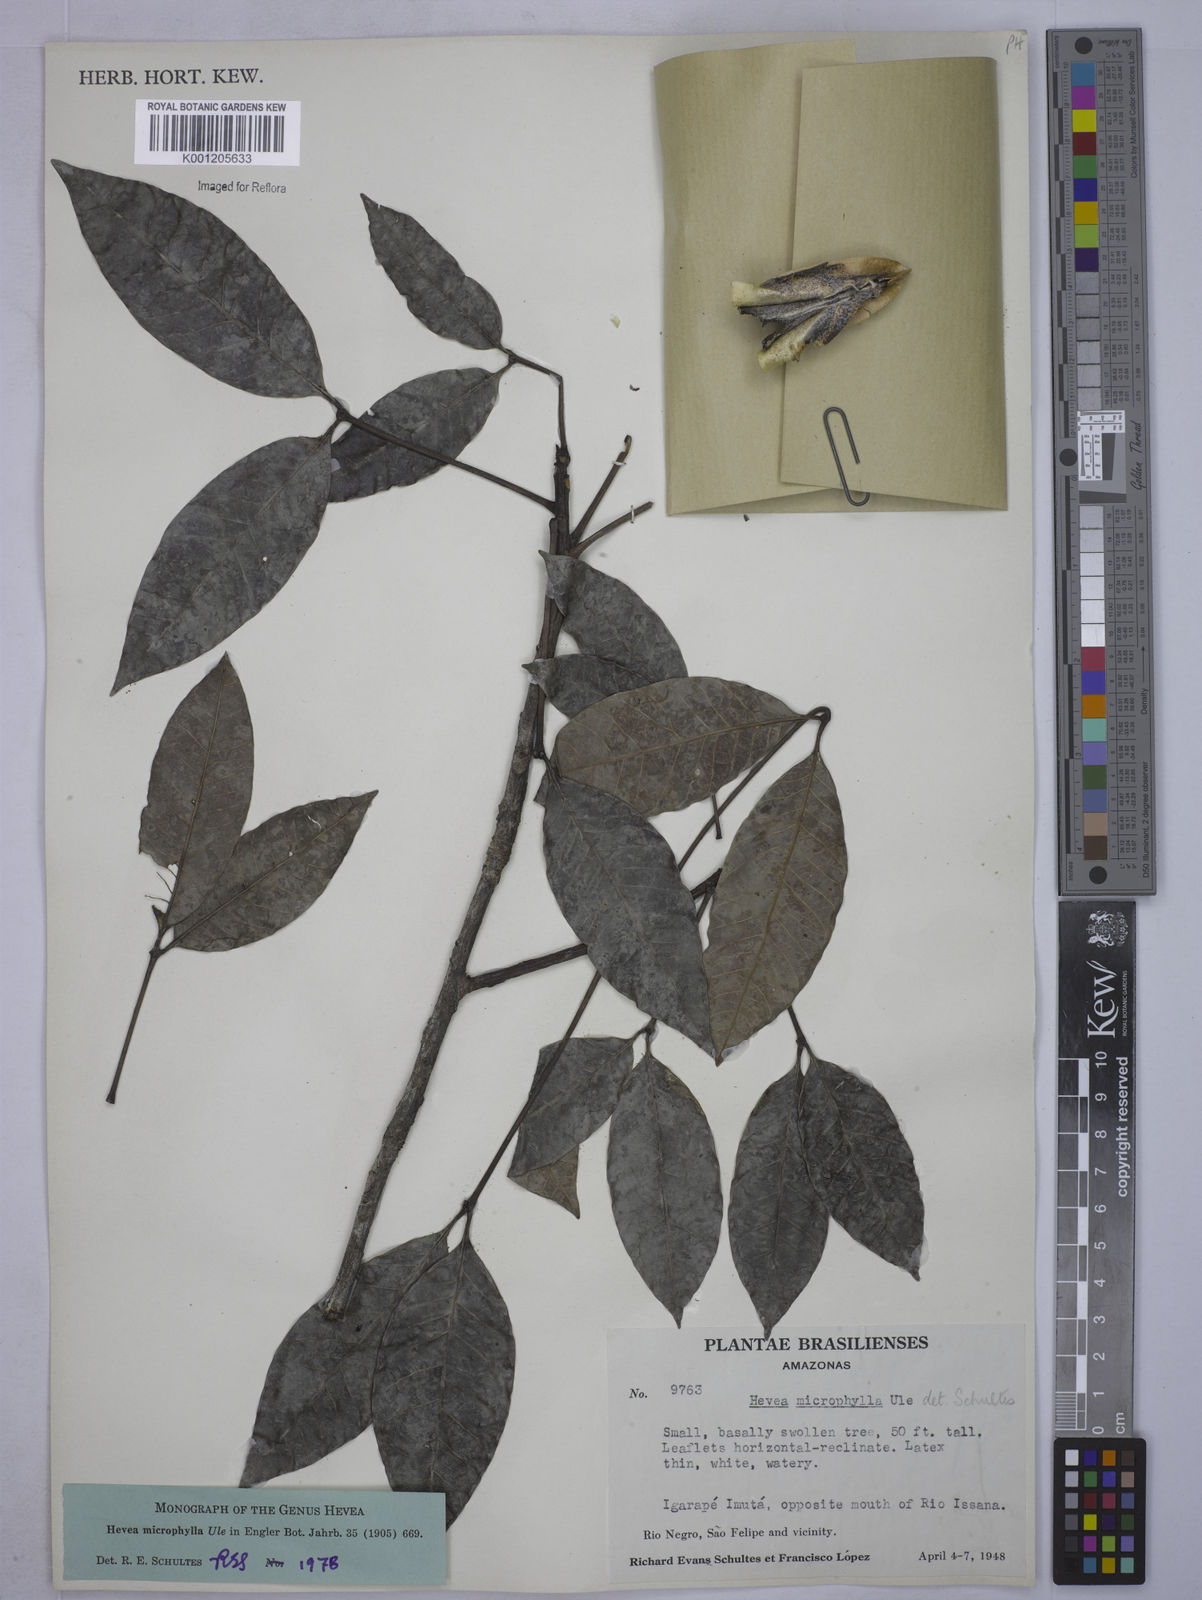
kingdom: Plantae
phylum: Tracheophyta
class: Magnoliopsida
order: Malpighiales
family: Euphorbiaceae
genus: Hevea
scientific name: Hevea microphylla
